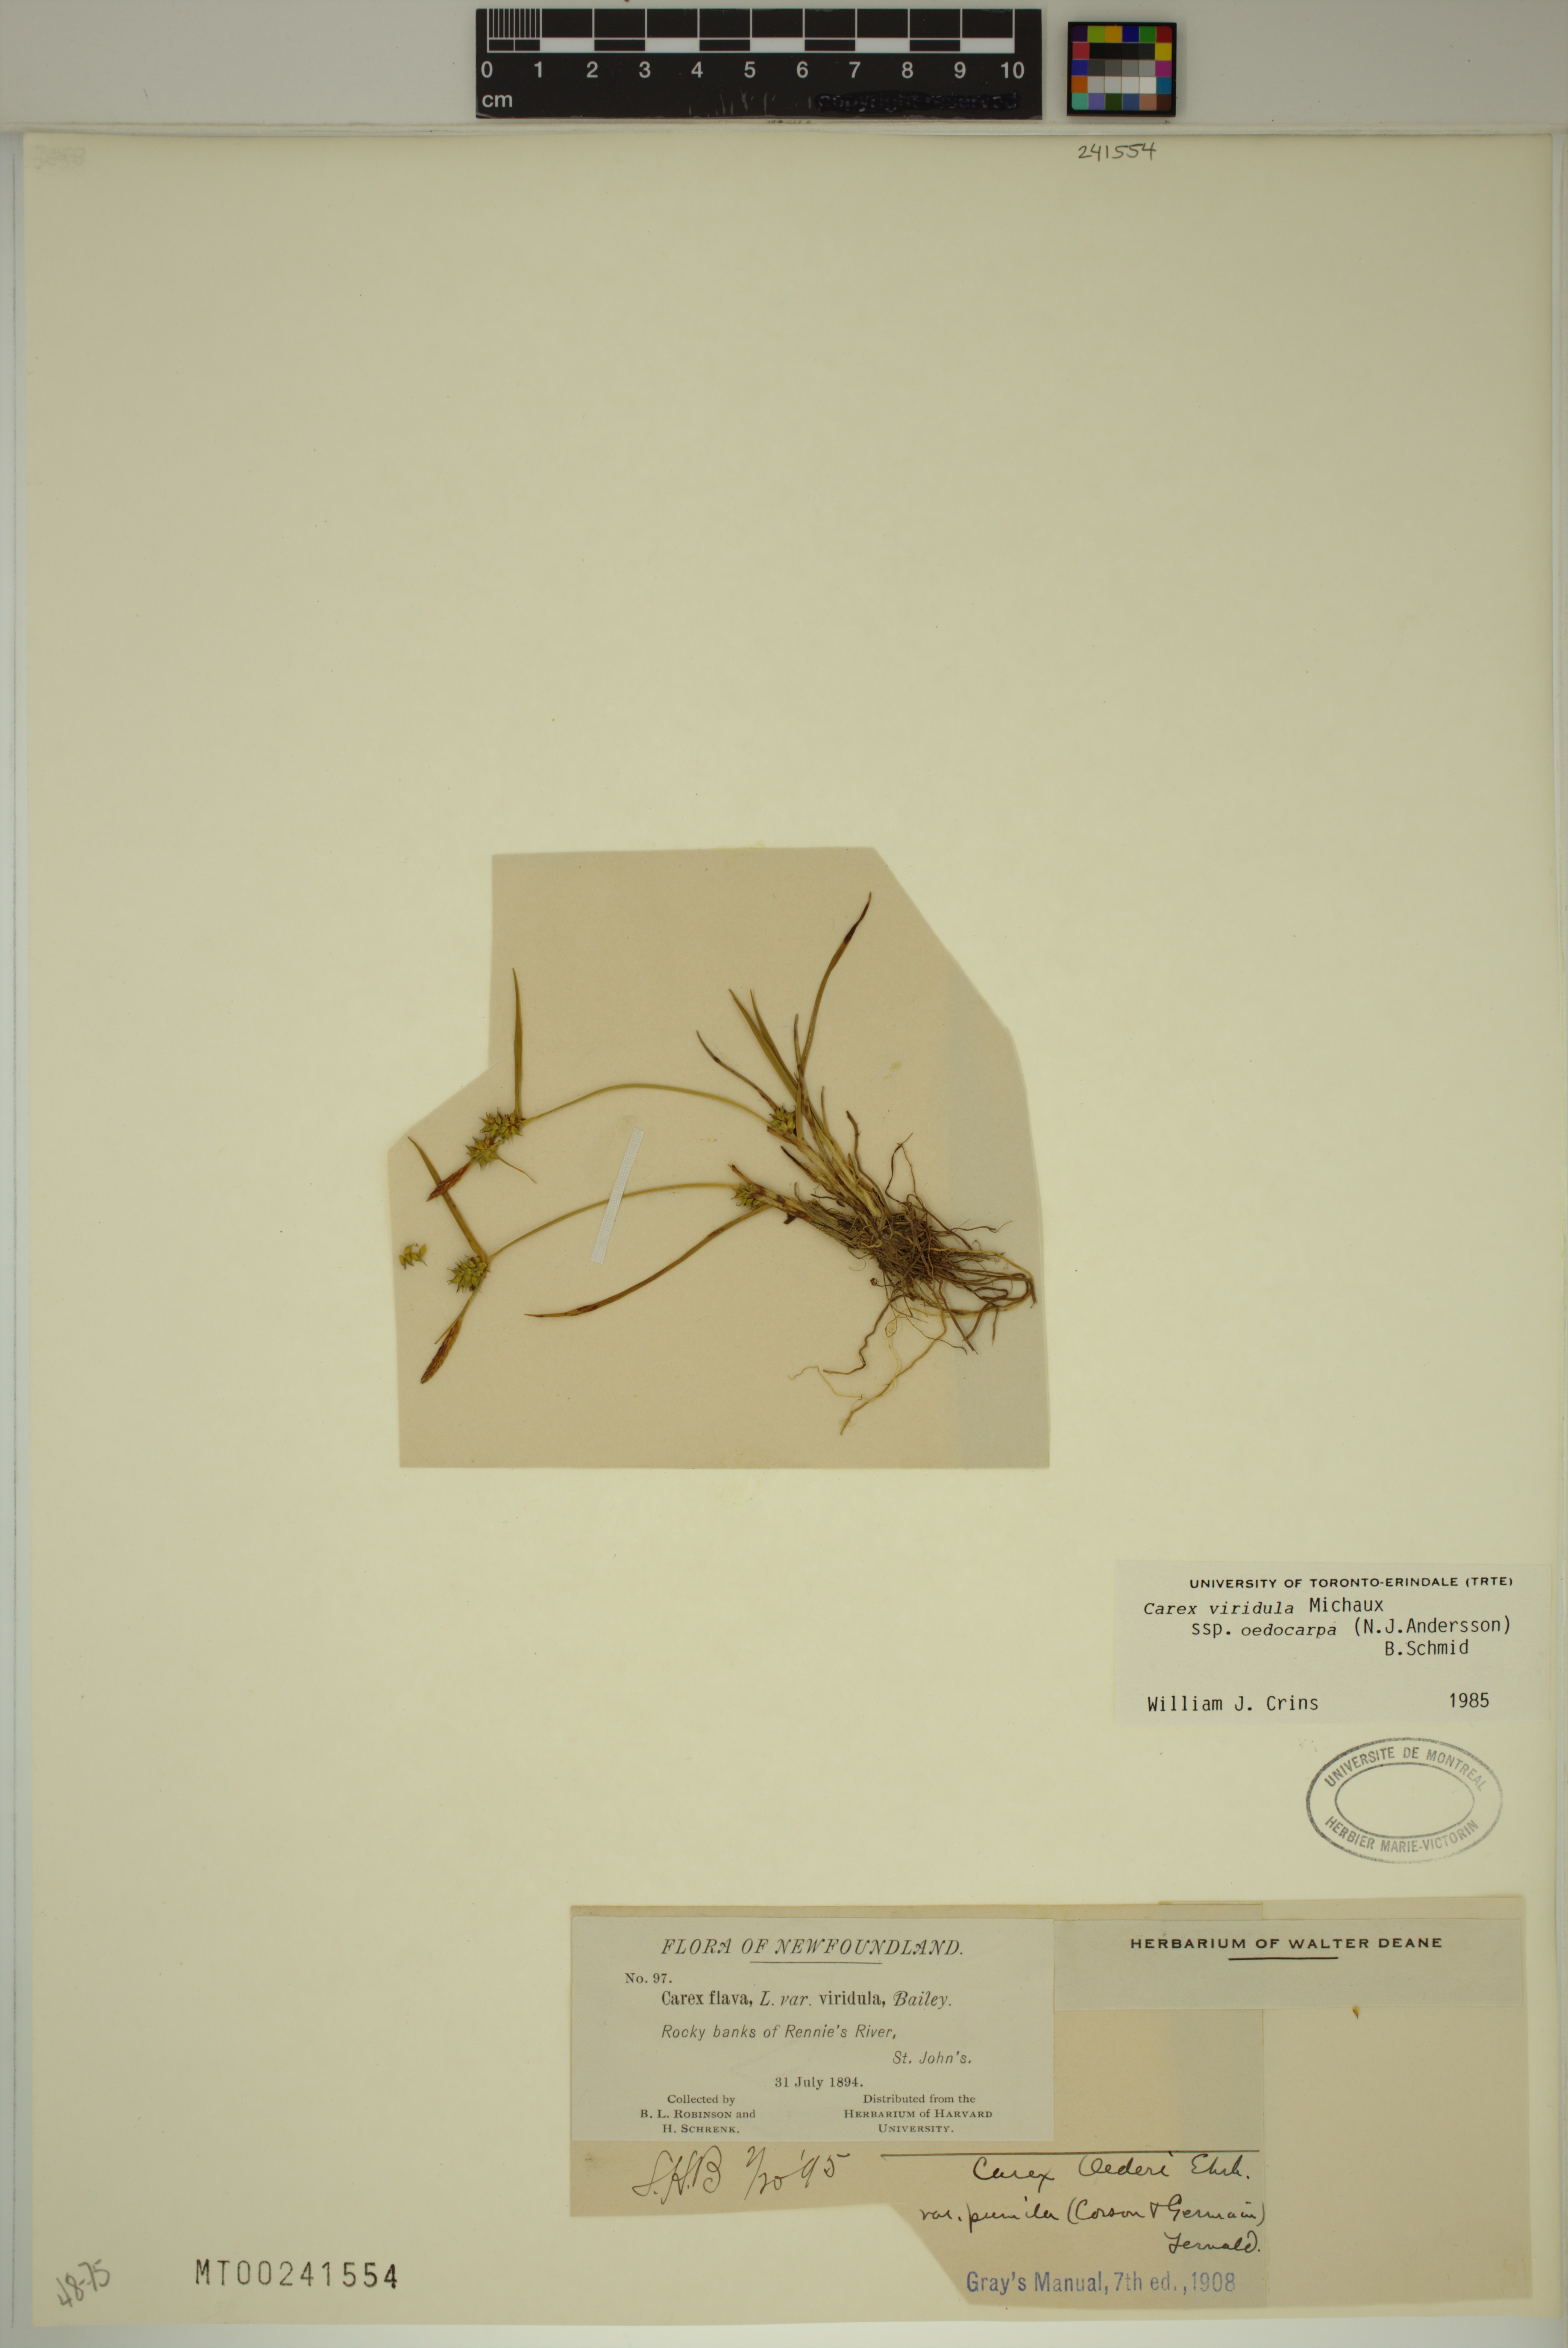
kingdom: Plantae
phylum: Tracheophyta
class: Liliopsida
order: Poales
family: Cyperaceae
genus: Carex
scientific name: Carex demissa
